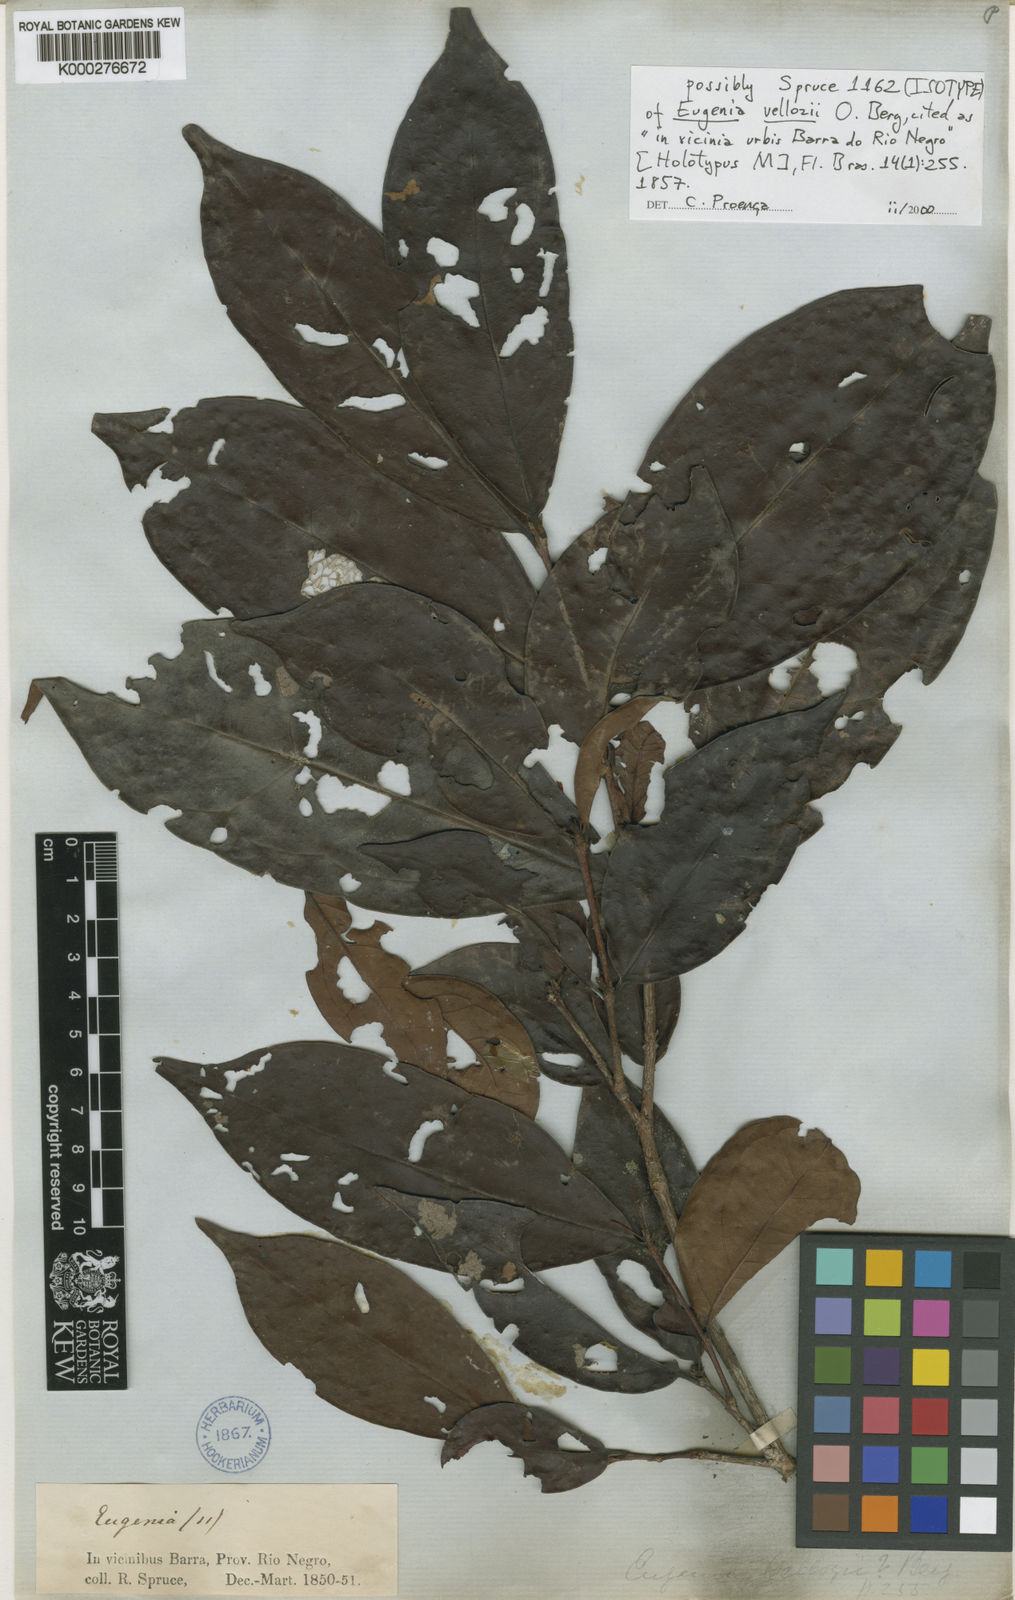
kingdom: Plantae
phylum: Tracheophyta
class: Magnoliopsida
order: Myrtales
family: Myrtaceae
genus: Eugenia
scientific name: Eugenia procera
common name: Bastard blackberry
